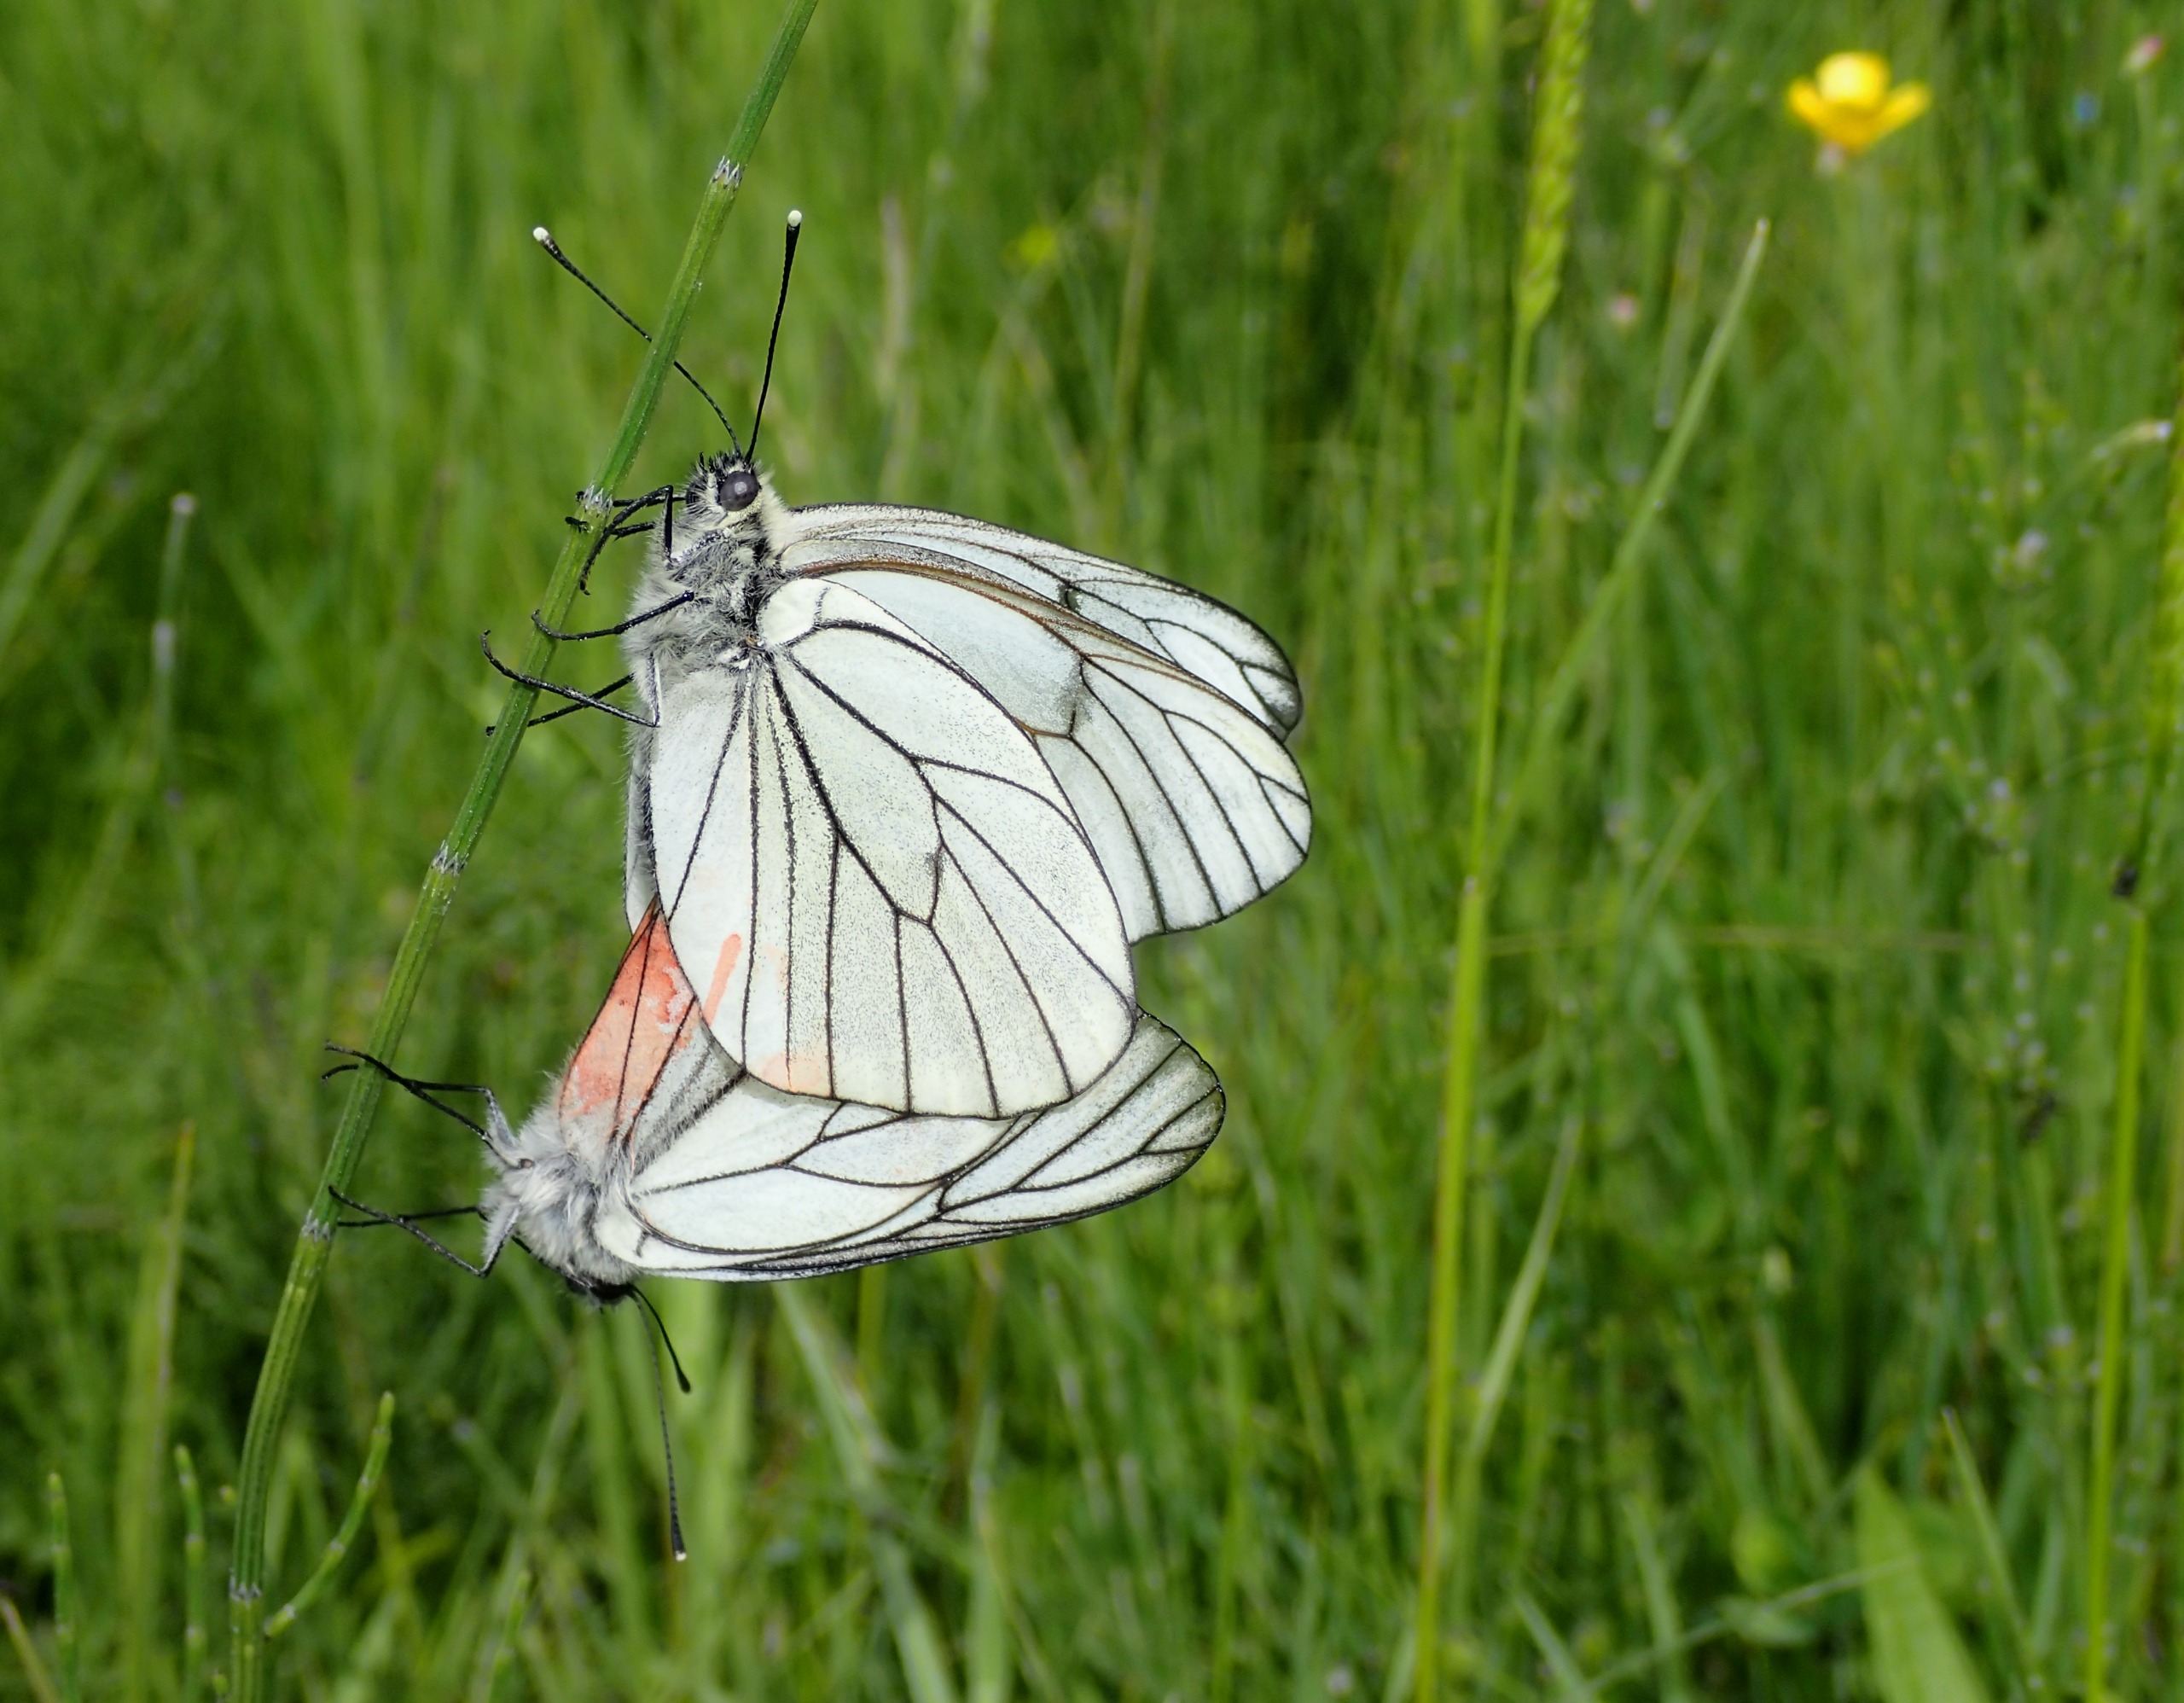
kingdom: Animalia
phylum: Arthropoda
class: Insecta
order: Lepidoptera
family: Pieridae
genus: Aporia
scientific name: Aporia crataegi
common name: Sortåret hvidvinge
